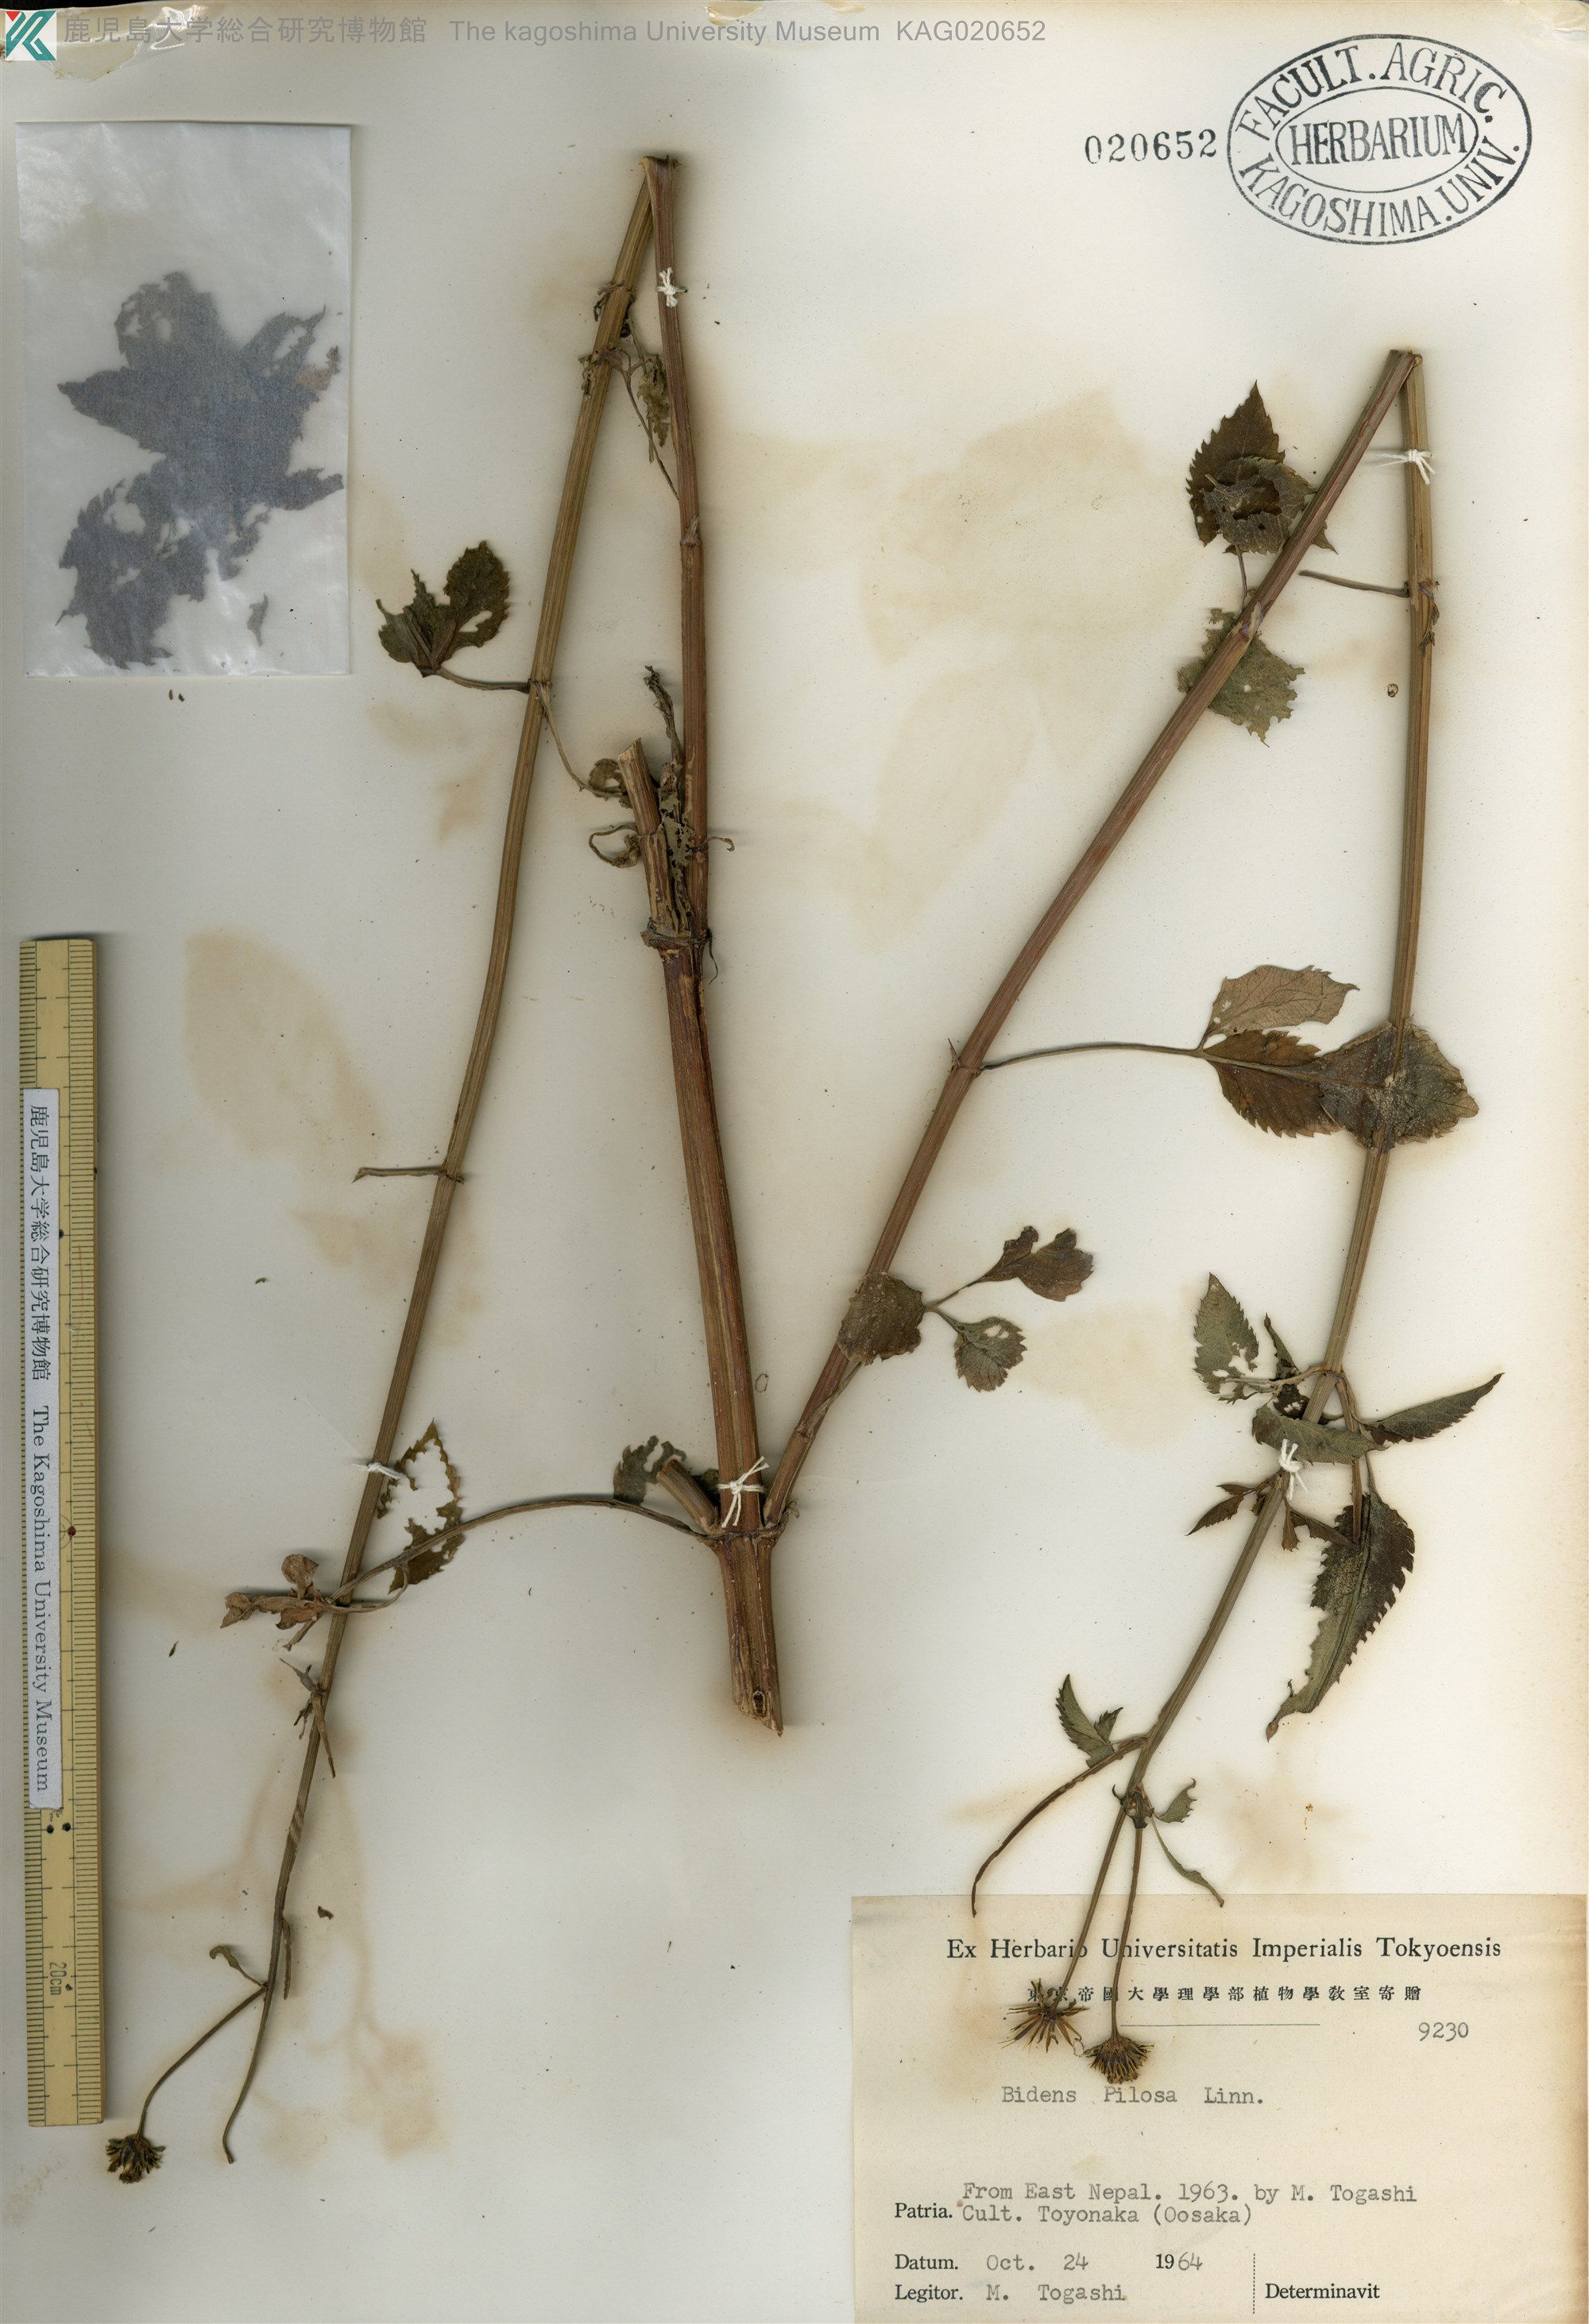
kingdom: Plantae
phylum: Tracheophyta
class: Magnoliopsida
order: Asterales
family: Asteraceae
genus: Bidens
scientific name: Bidens pilosa
